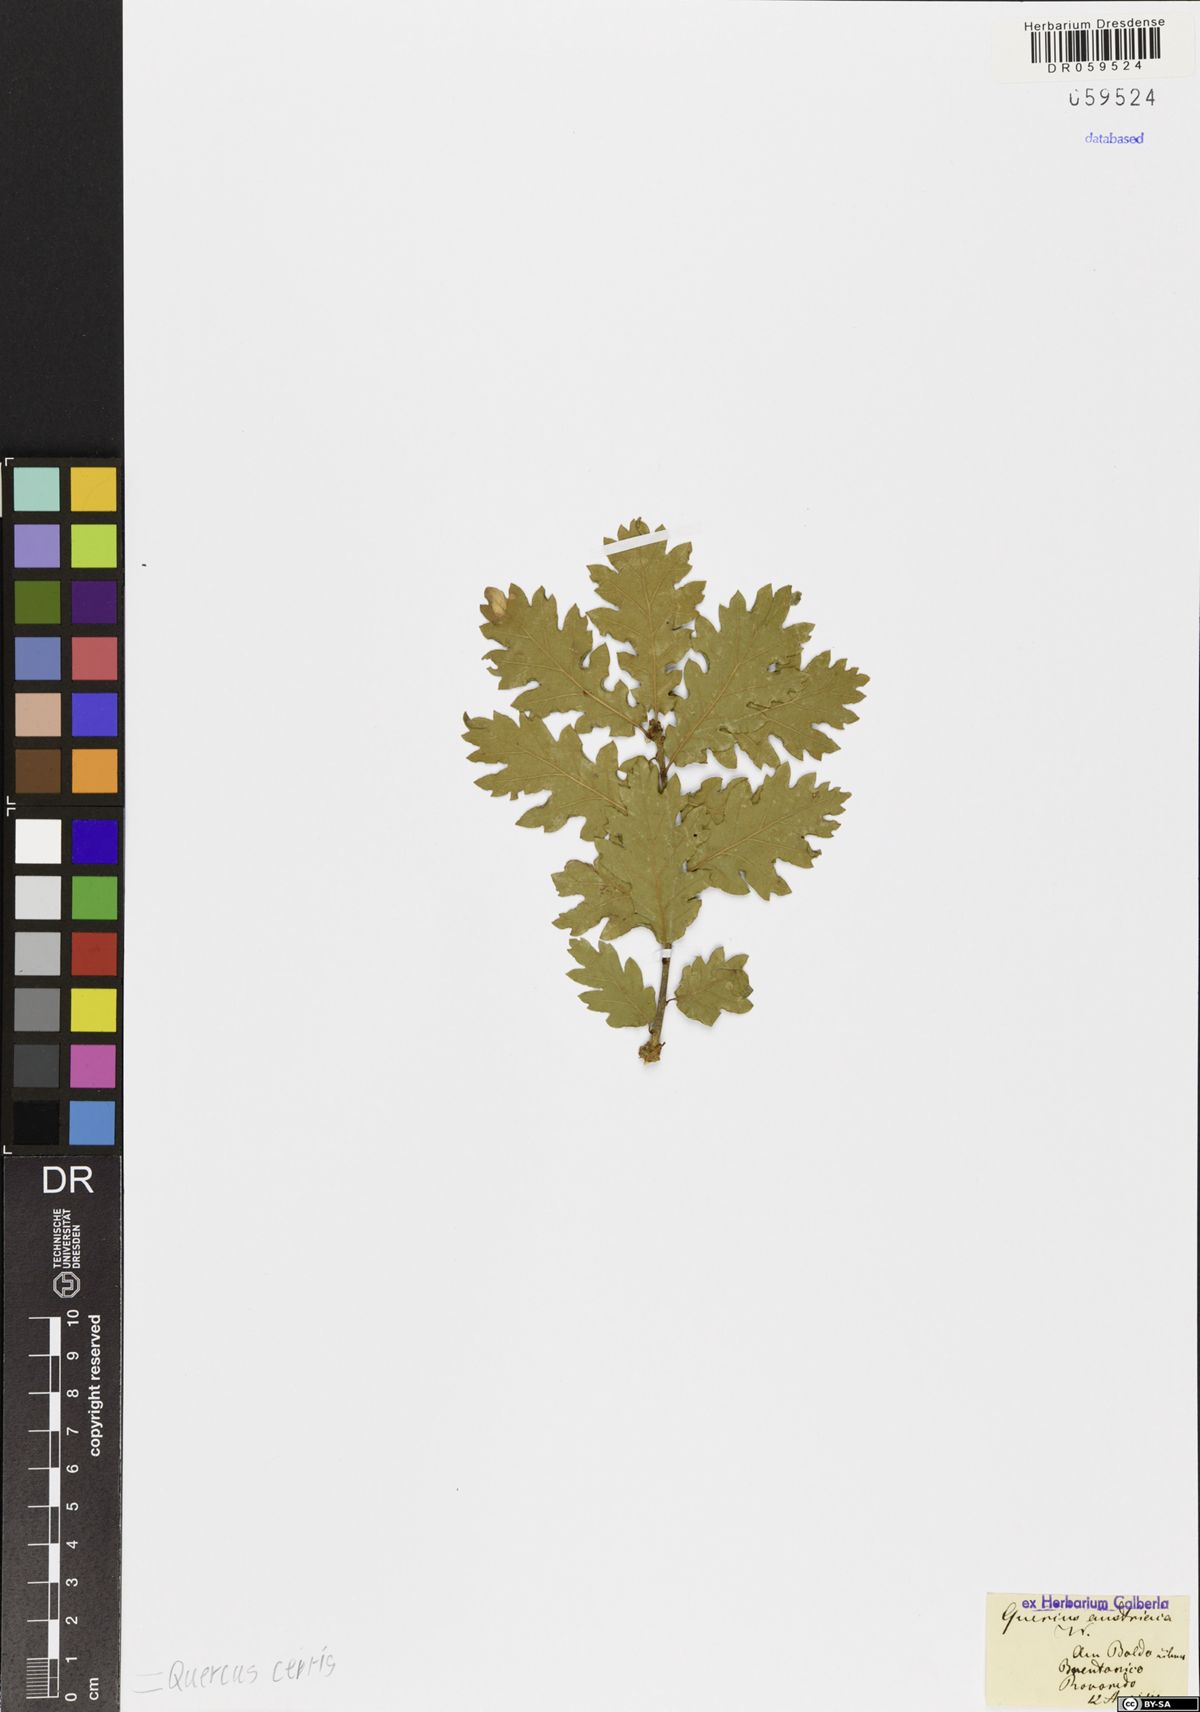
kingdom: Plantae
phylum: Tracheophyta
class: Magnoliopsida
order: Fagales
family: Fagaceae
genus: Quercus
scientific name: Quercus cerris
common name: Turkey oak
